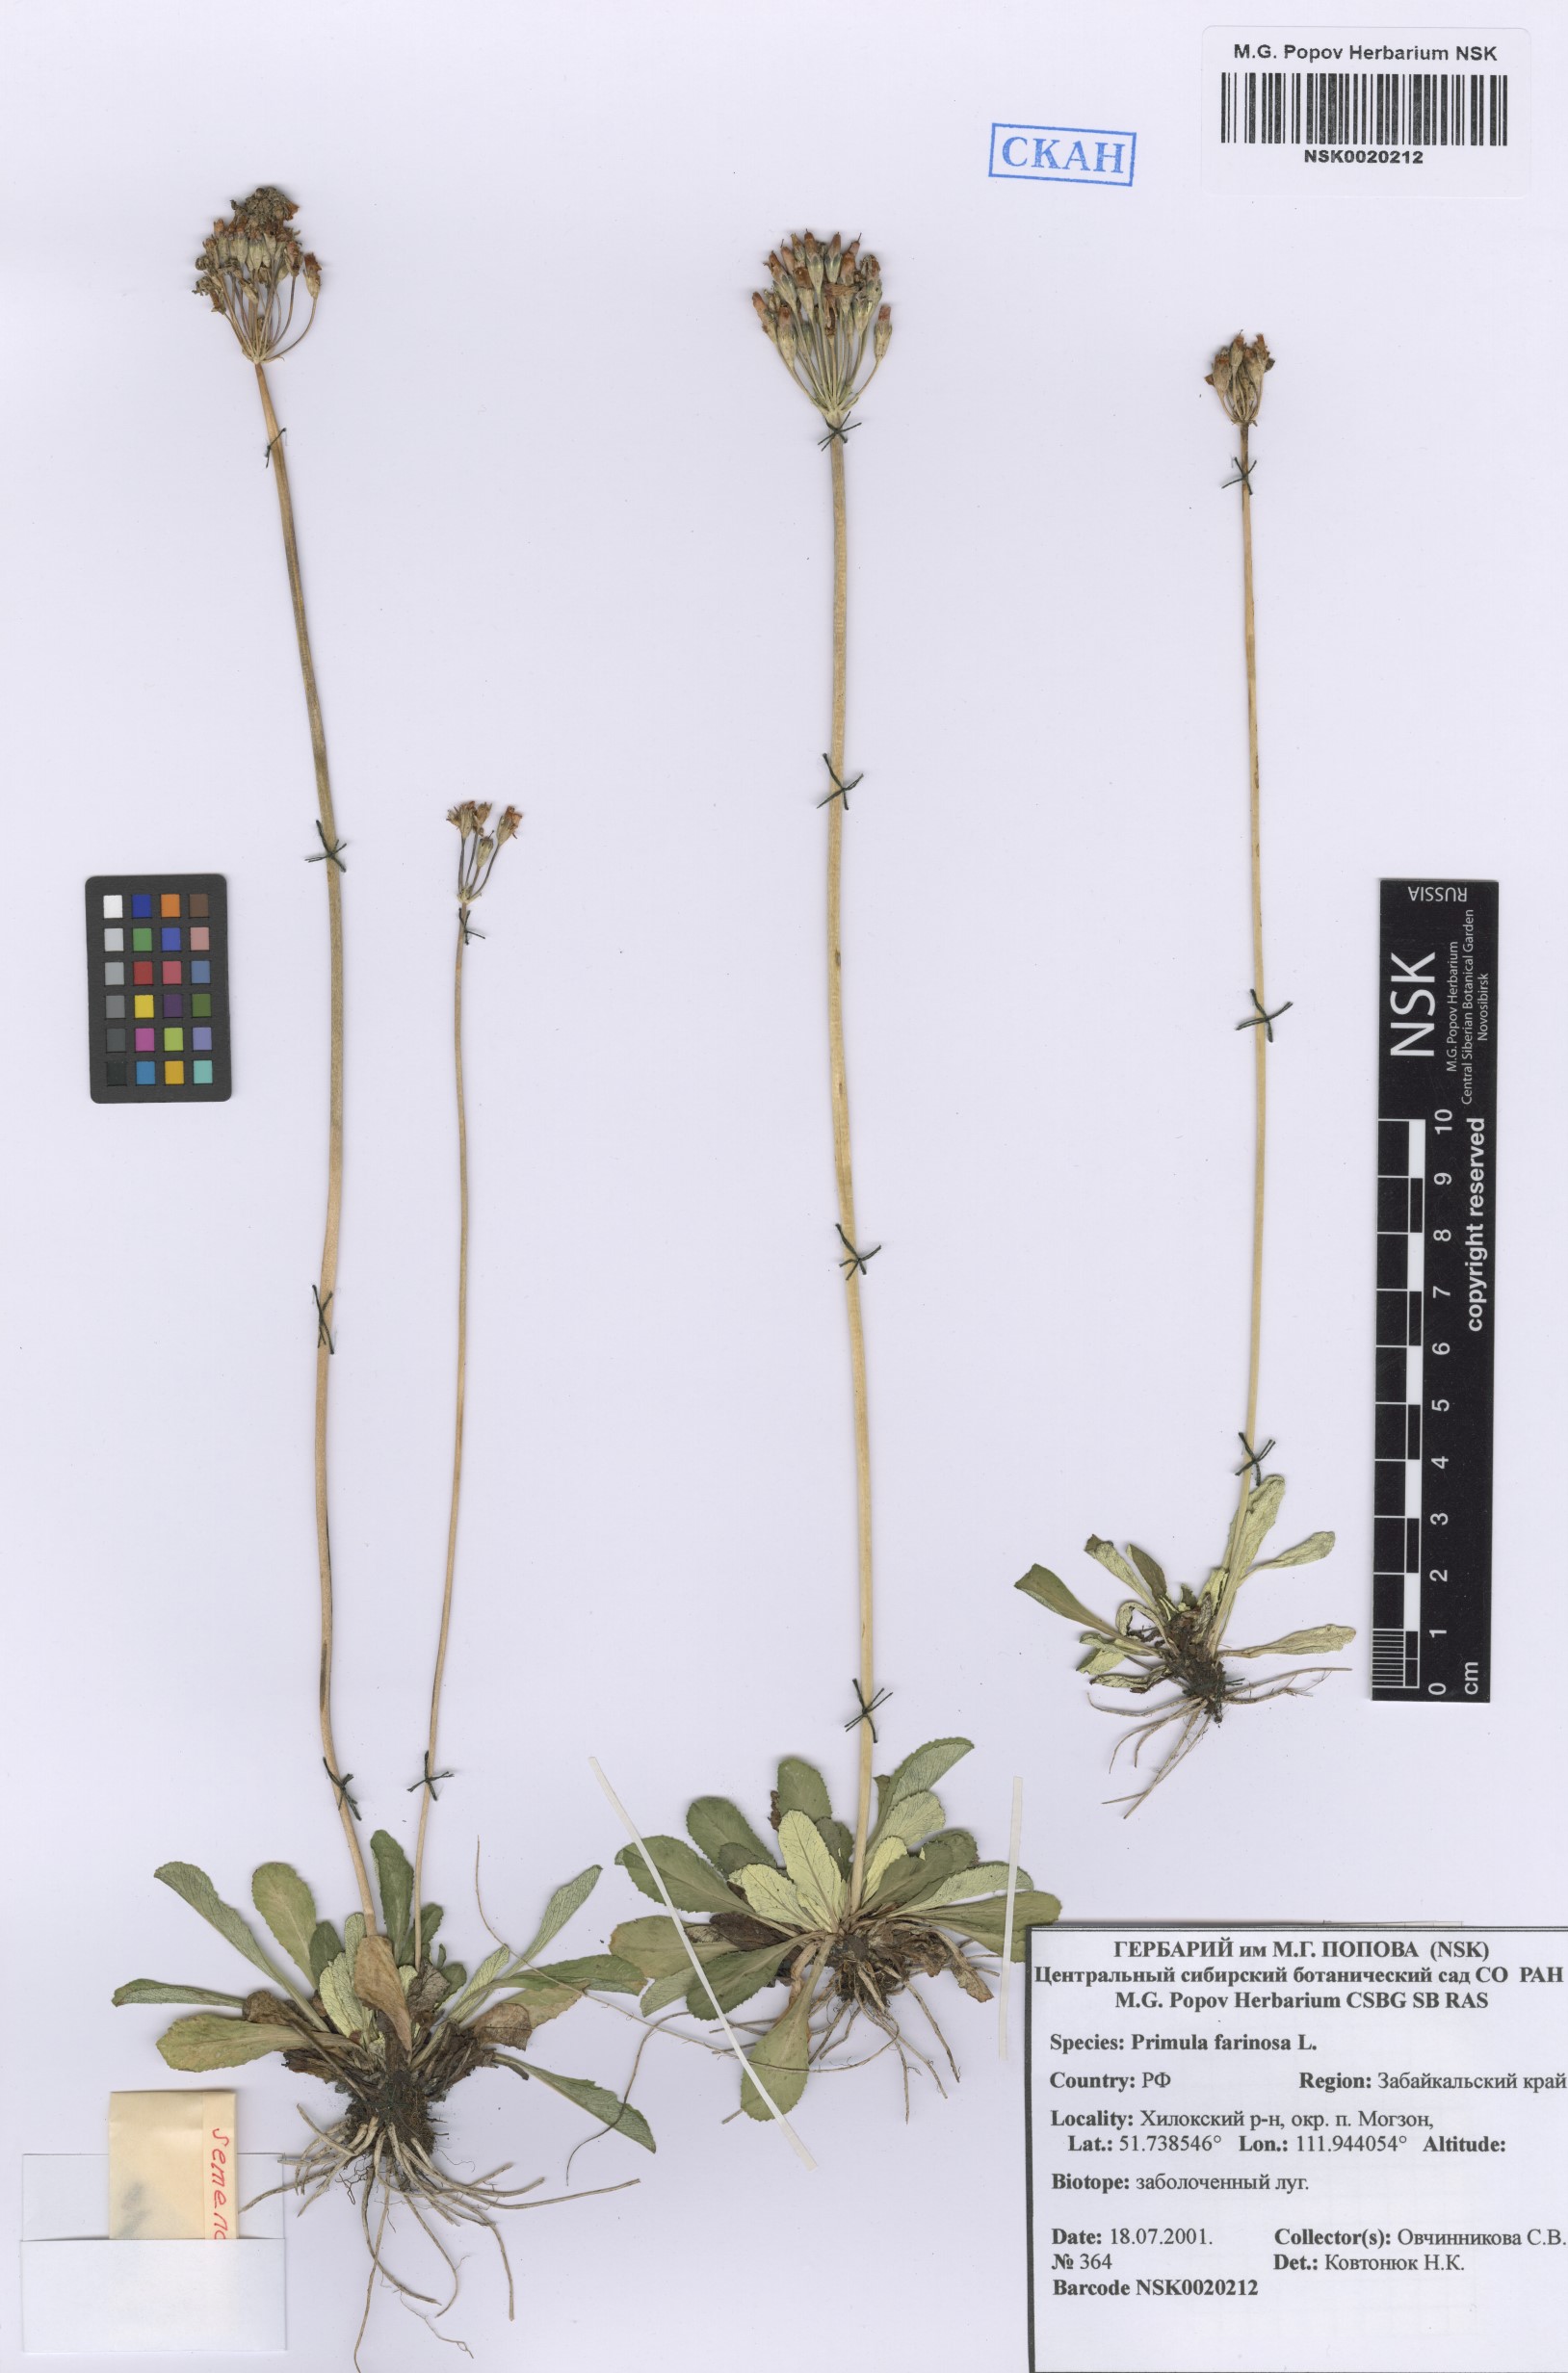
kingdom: Plantae
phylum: Tracheophyta
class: Magnoliopsida
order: Ericales
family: Primulaceae
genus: Primula
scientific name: Primula farinosa
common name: Bird's-eye primrose
